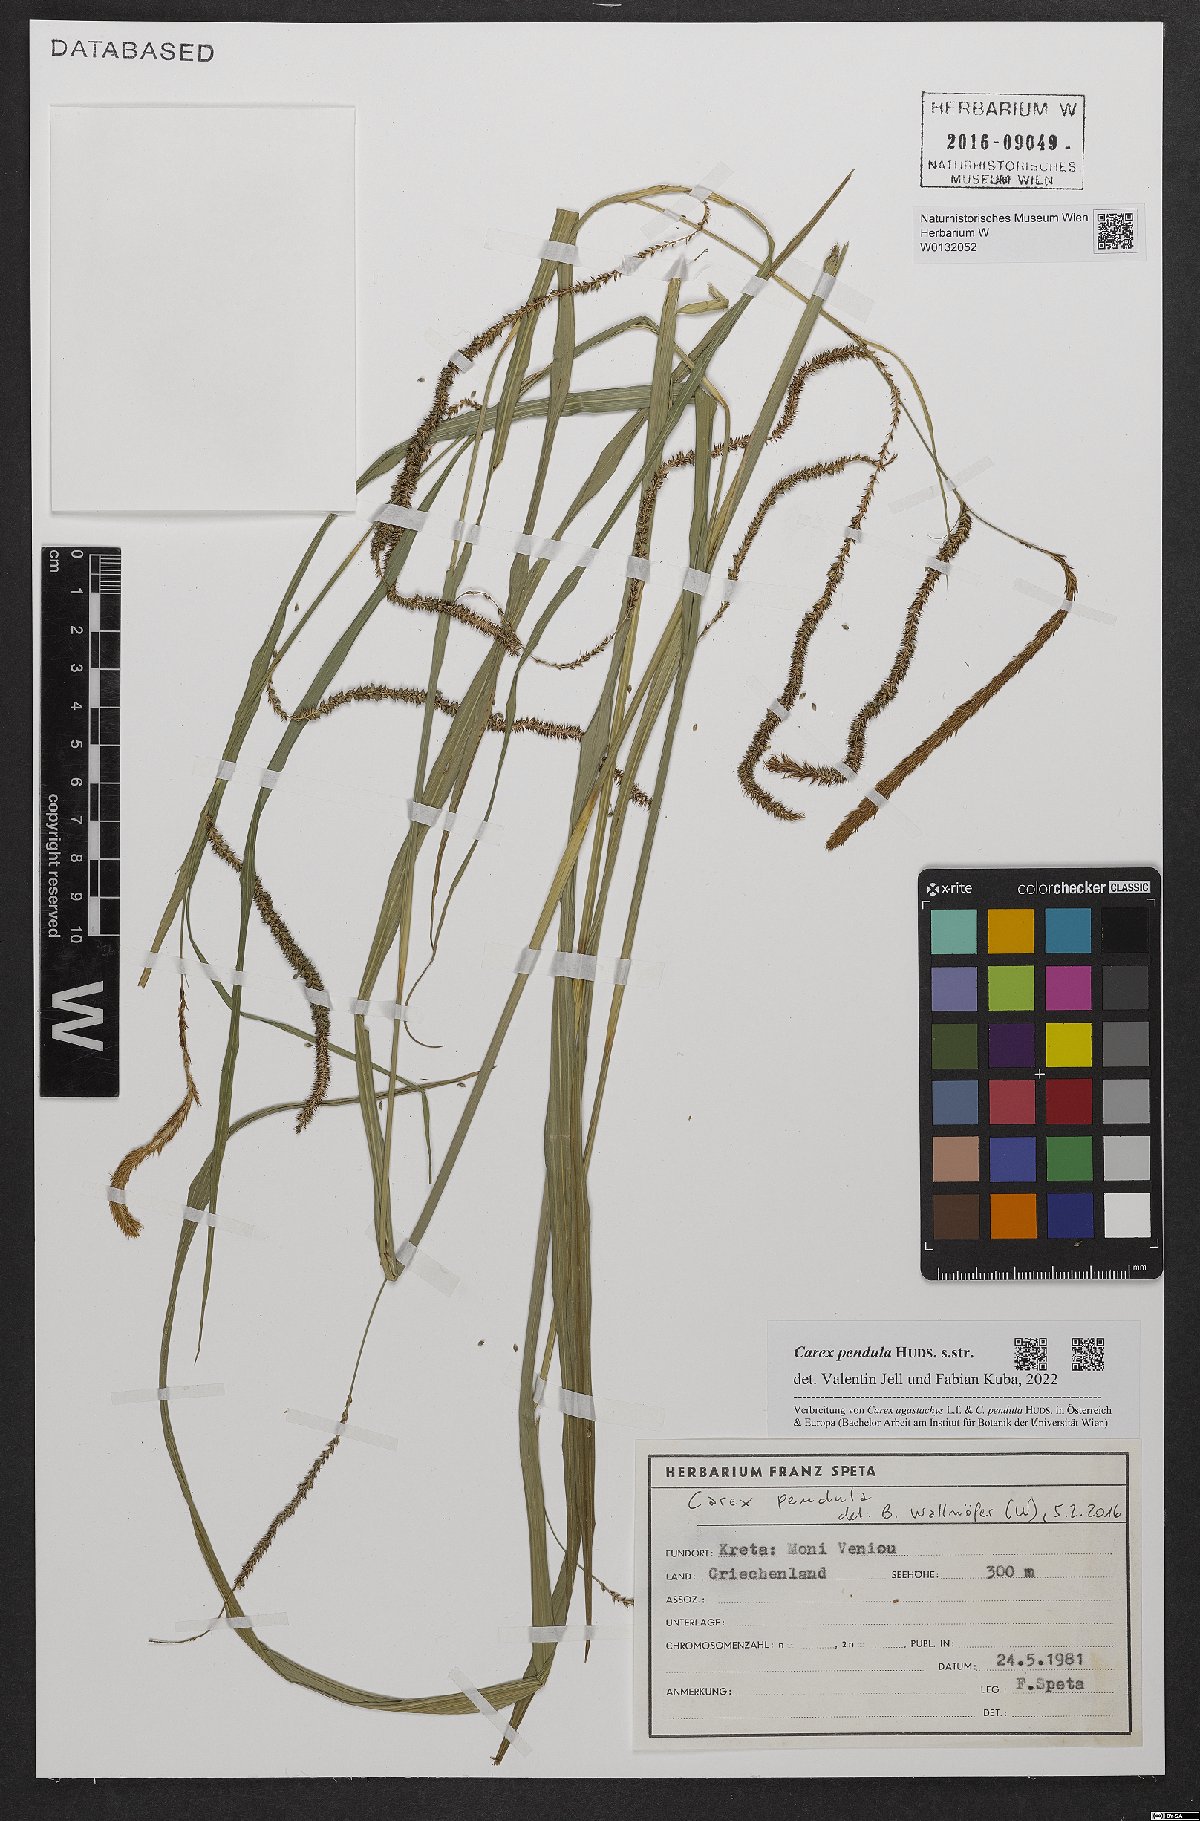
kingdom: Plantae
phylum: Tracheophyta
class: Liliopsida
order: Poales
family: Cyperaceae
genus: Carex
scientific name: Carex pendula
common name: Pendulous sedge
